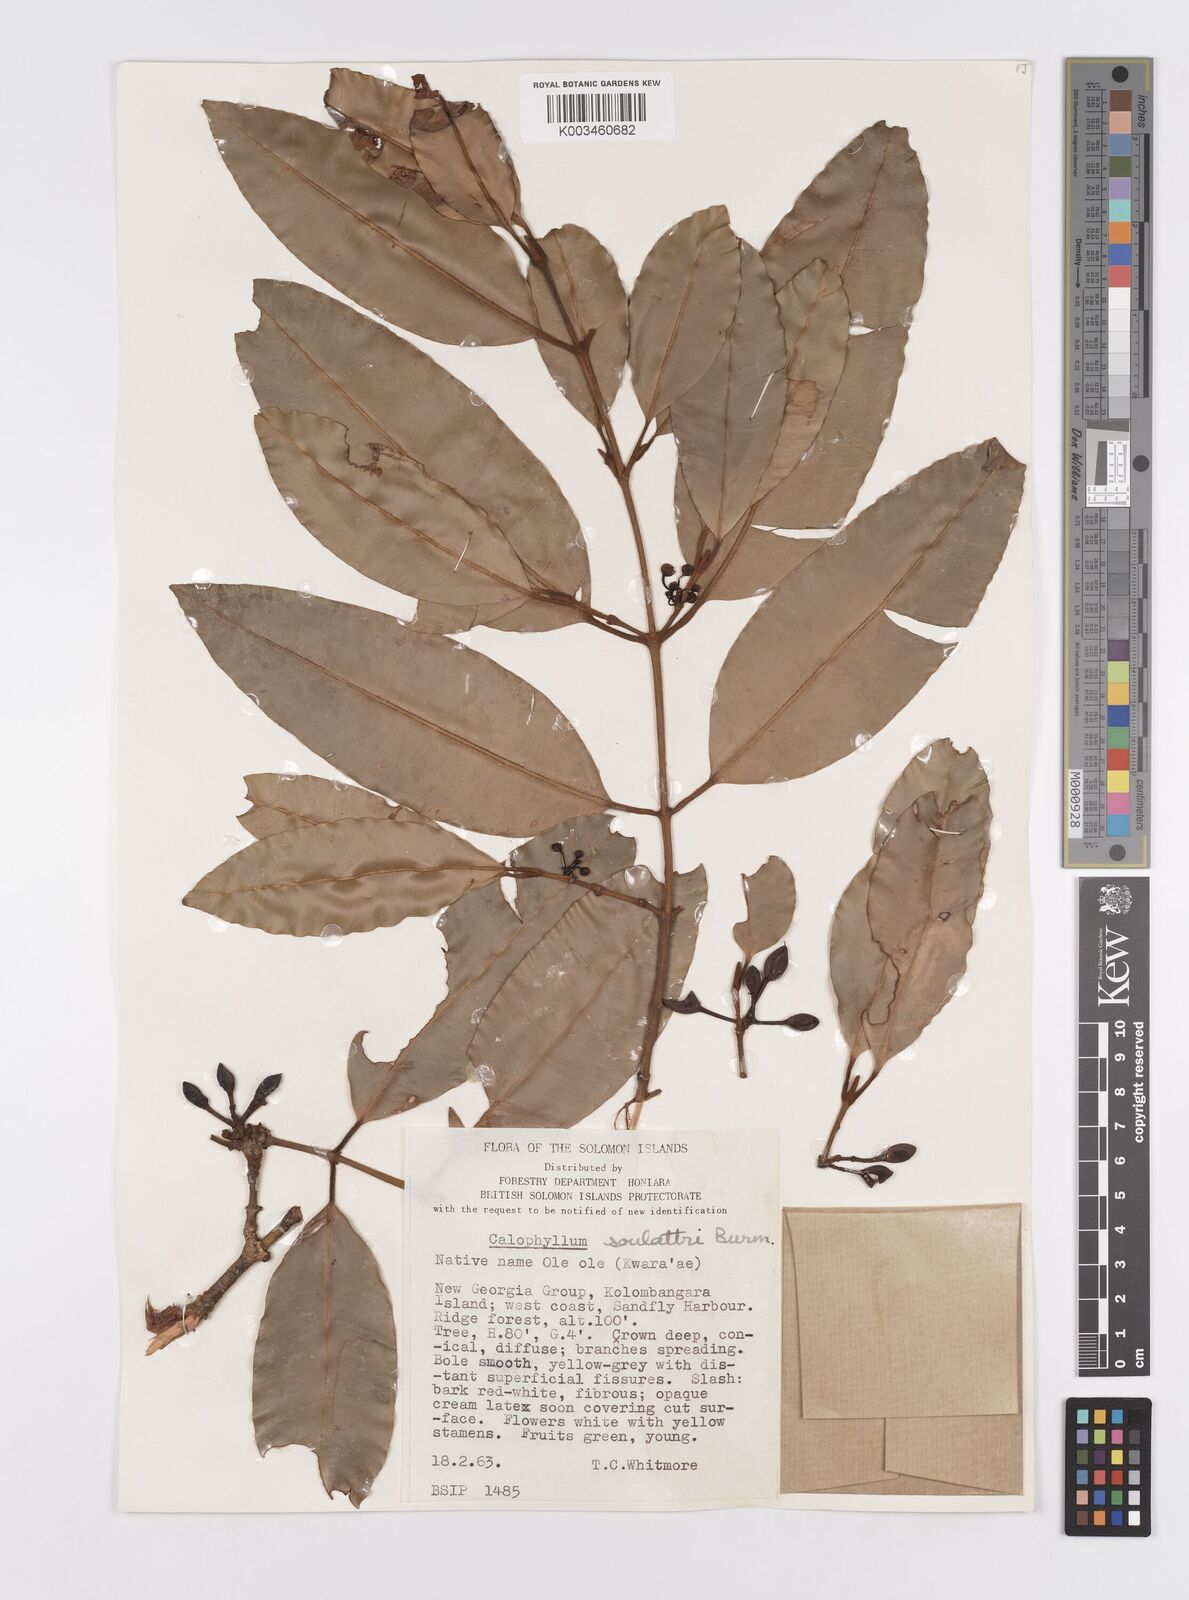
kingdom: Plantae
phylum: Tracheophyta
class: Magnoliopsida
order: Malpighiales
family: Calophyllaceae
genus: Calophyllum
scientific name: Calophyllum soulattri
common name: Bitangoor boonot
